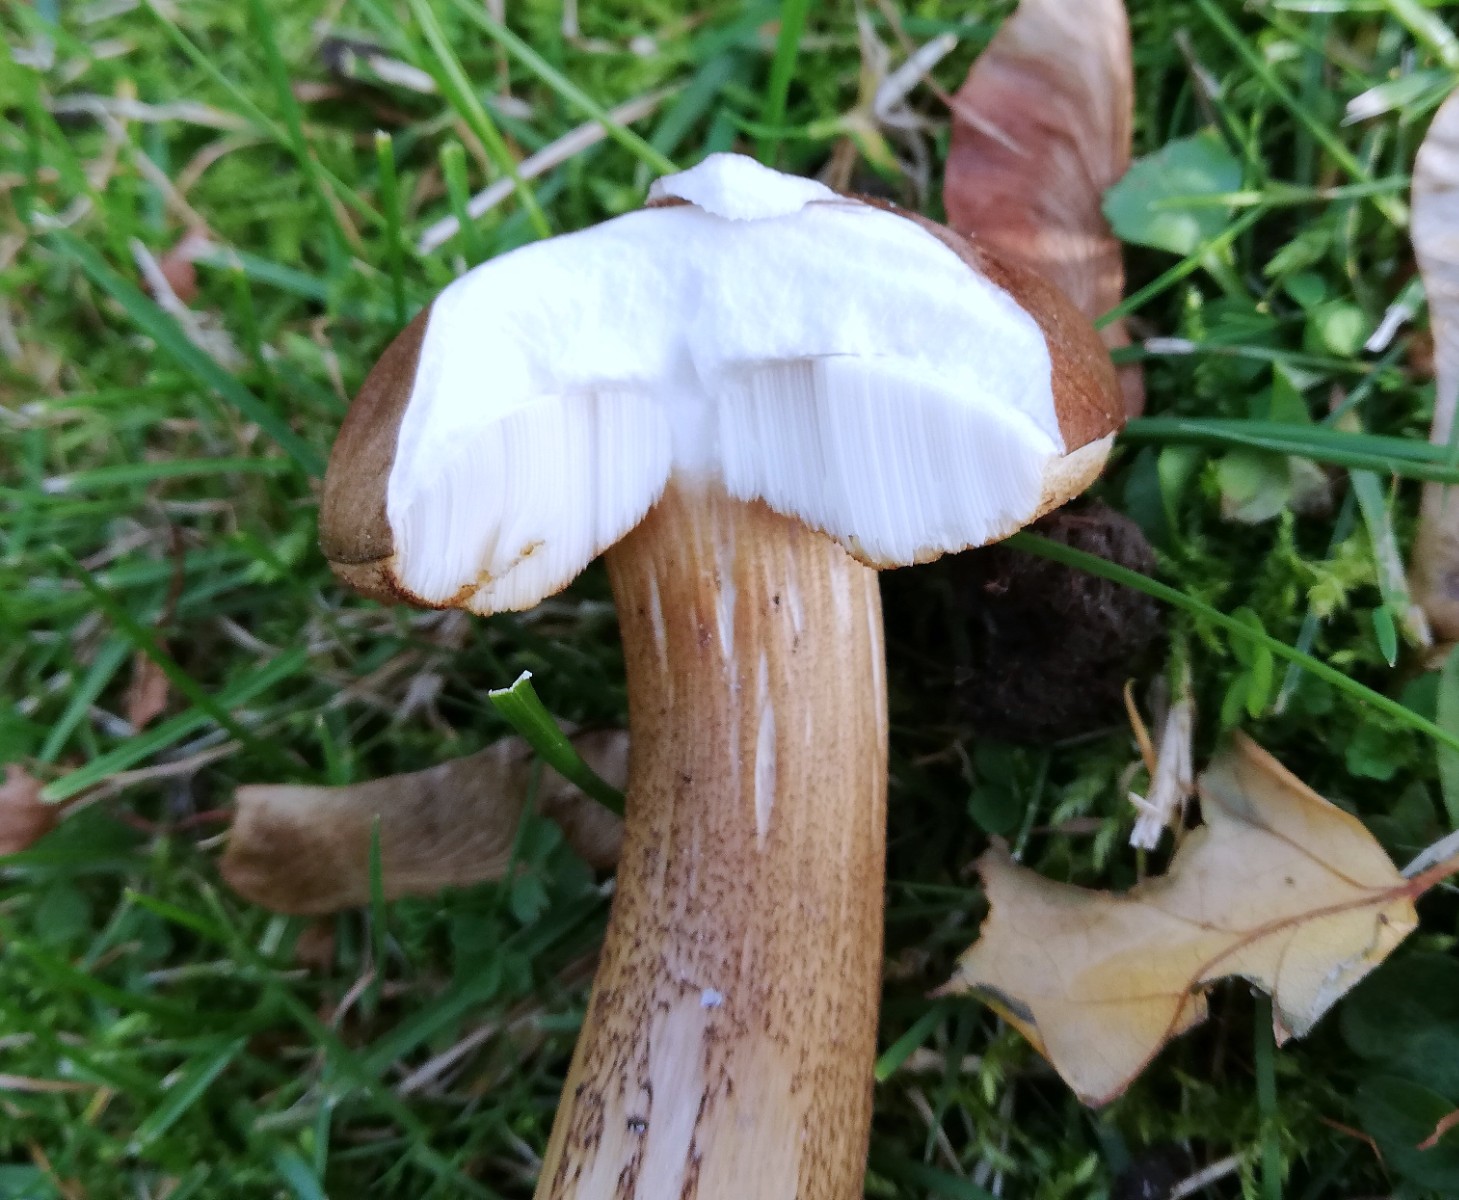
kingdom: Fungi
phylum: Basidiomycota
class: Agaricomycetes
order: Boletales
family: Boletaceae
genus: Leccinum
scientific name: Leccinum
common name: skælrørhat
